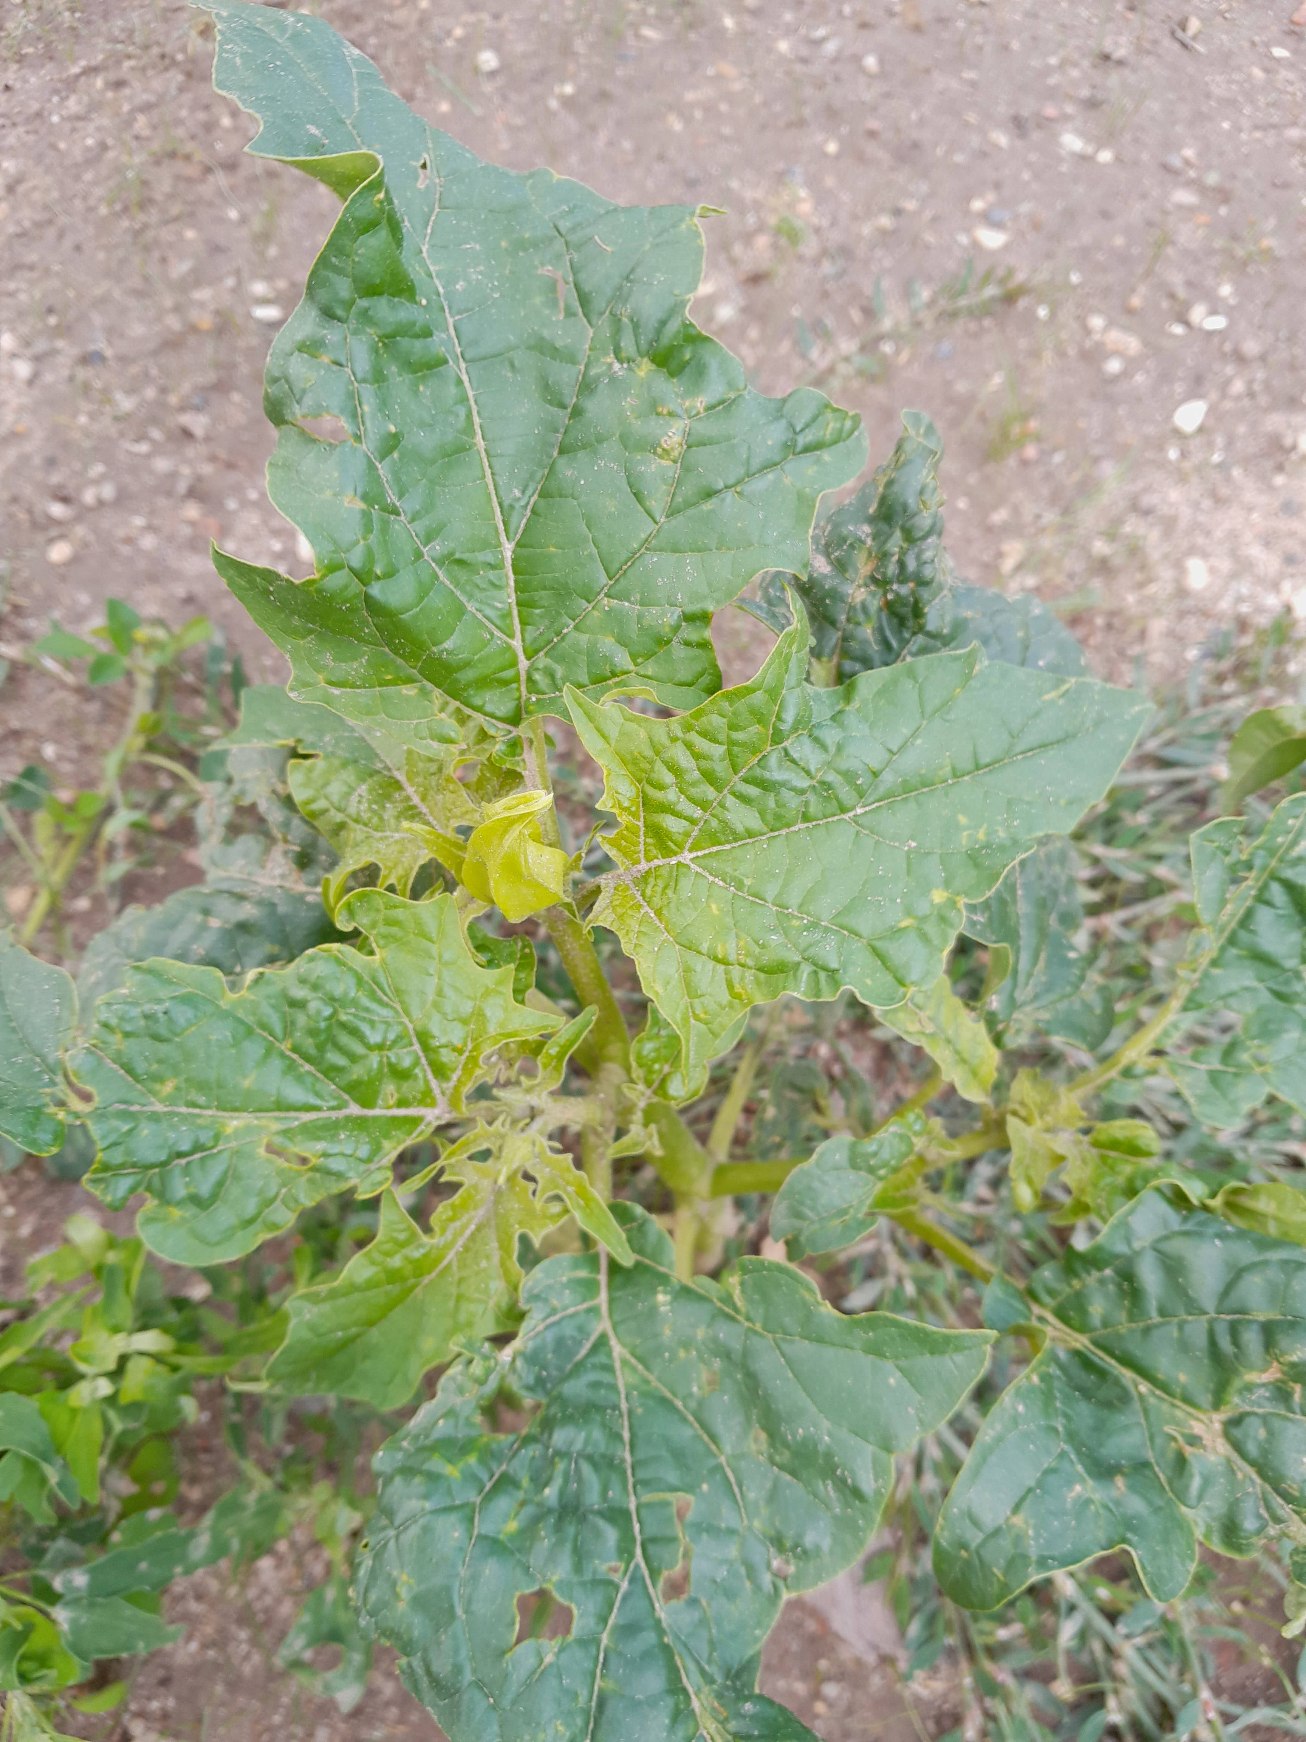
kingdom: Plantae
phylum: Tracheophyta
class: Magnoliopsida
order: Solanales
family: Solanaceae
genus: Datura
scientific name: Datura stramonium
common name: Pigæble
